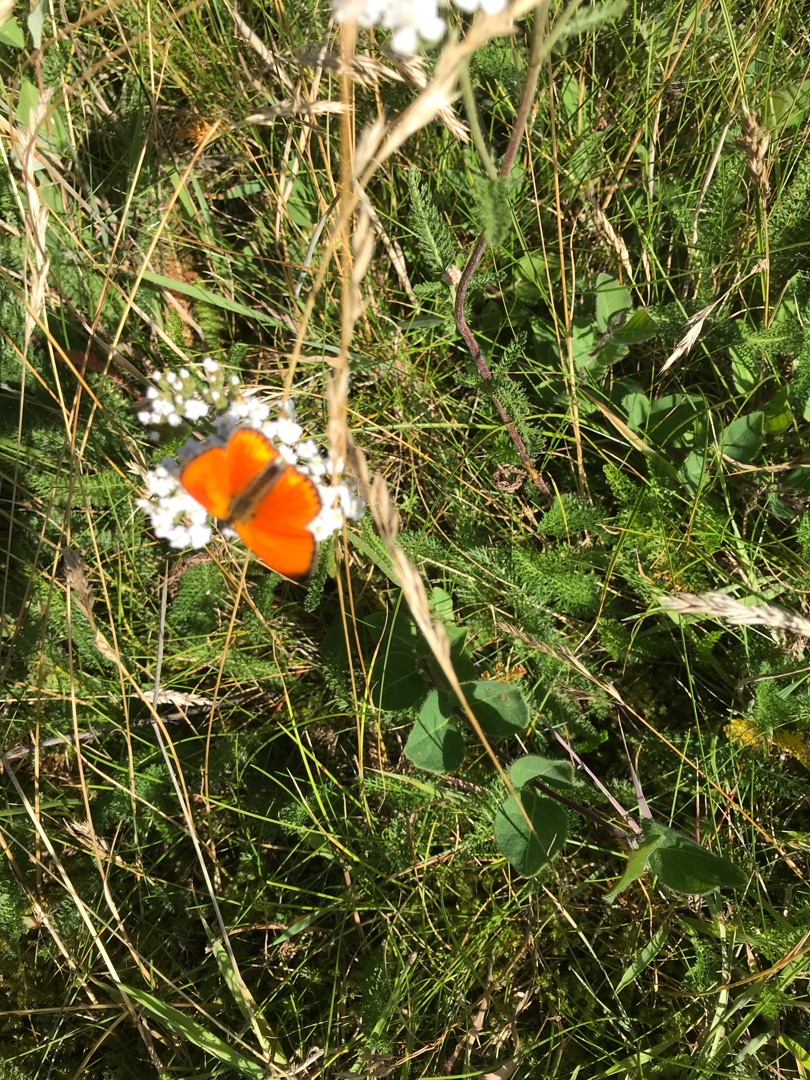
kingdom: Animalia
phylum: Arthropoda
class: Insecta
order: Lepidoptera
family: Lycaenidae
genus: Lycaena
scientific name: Lycaena virgaureae
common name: Dukatsommerfugl
